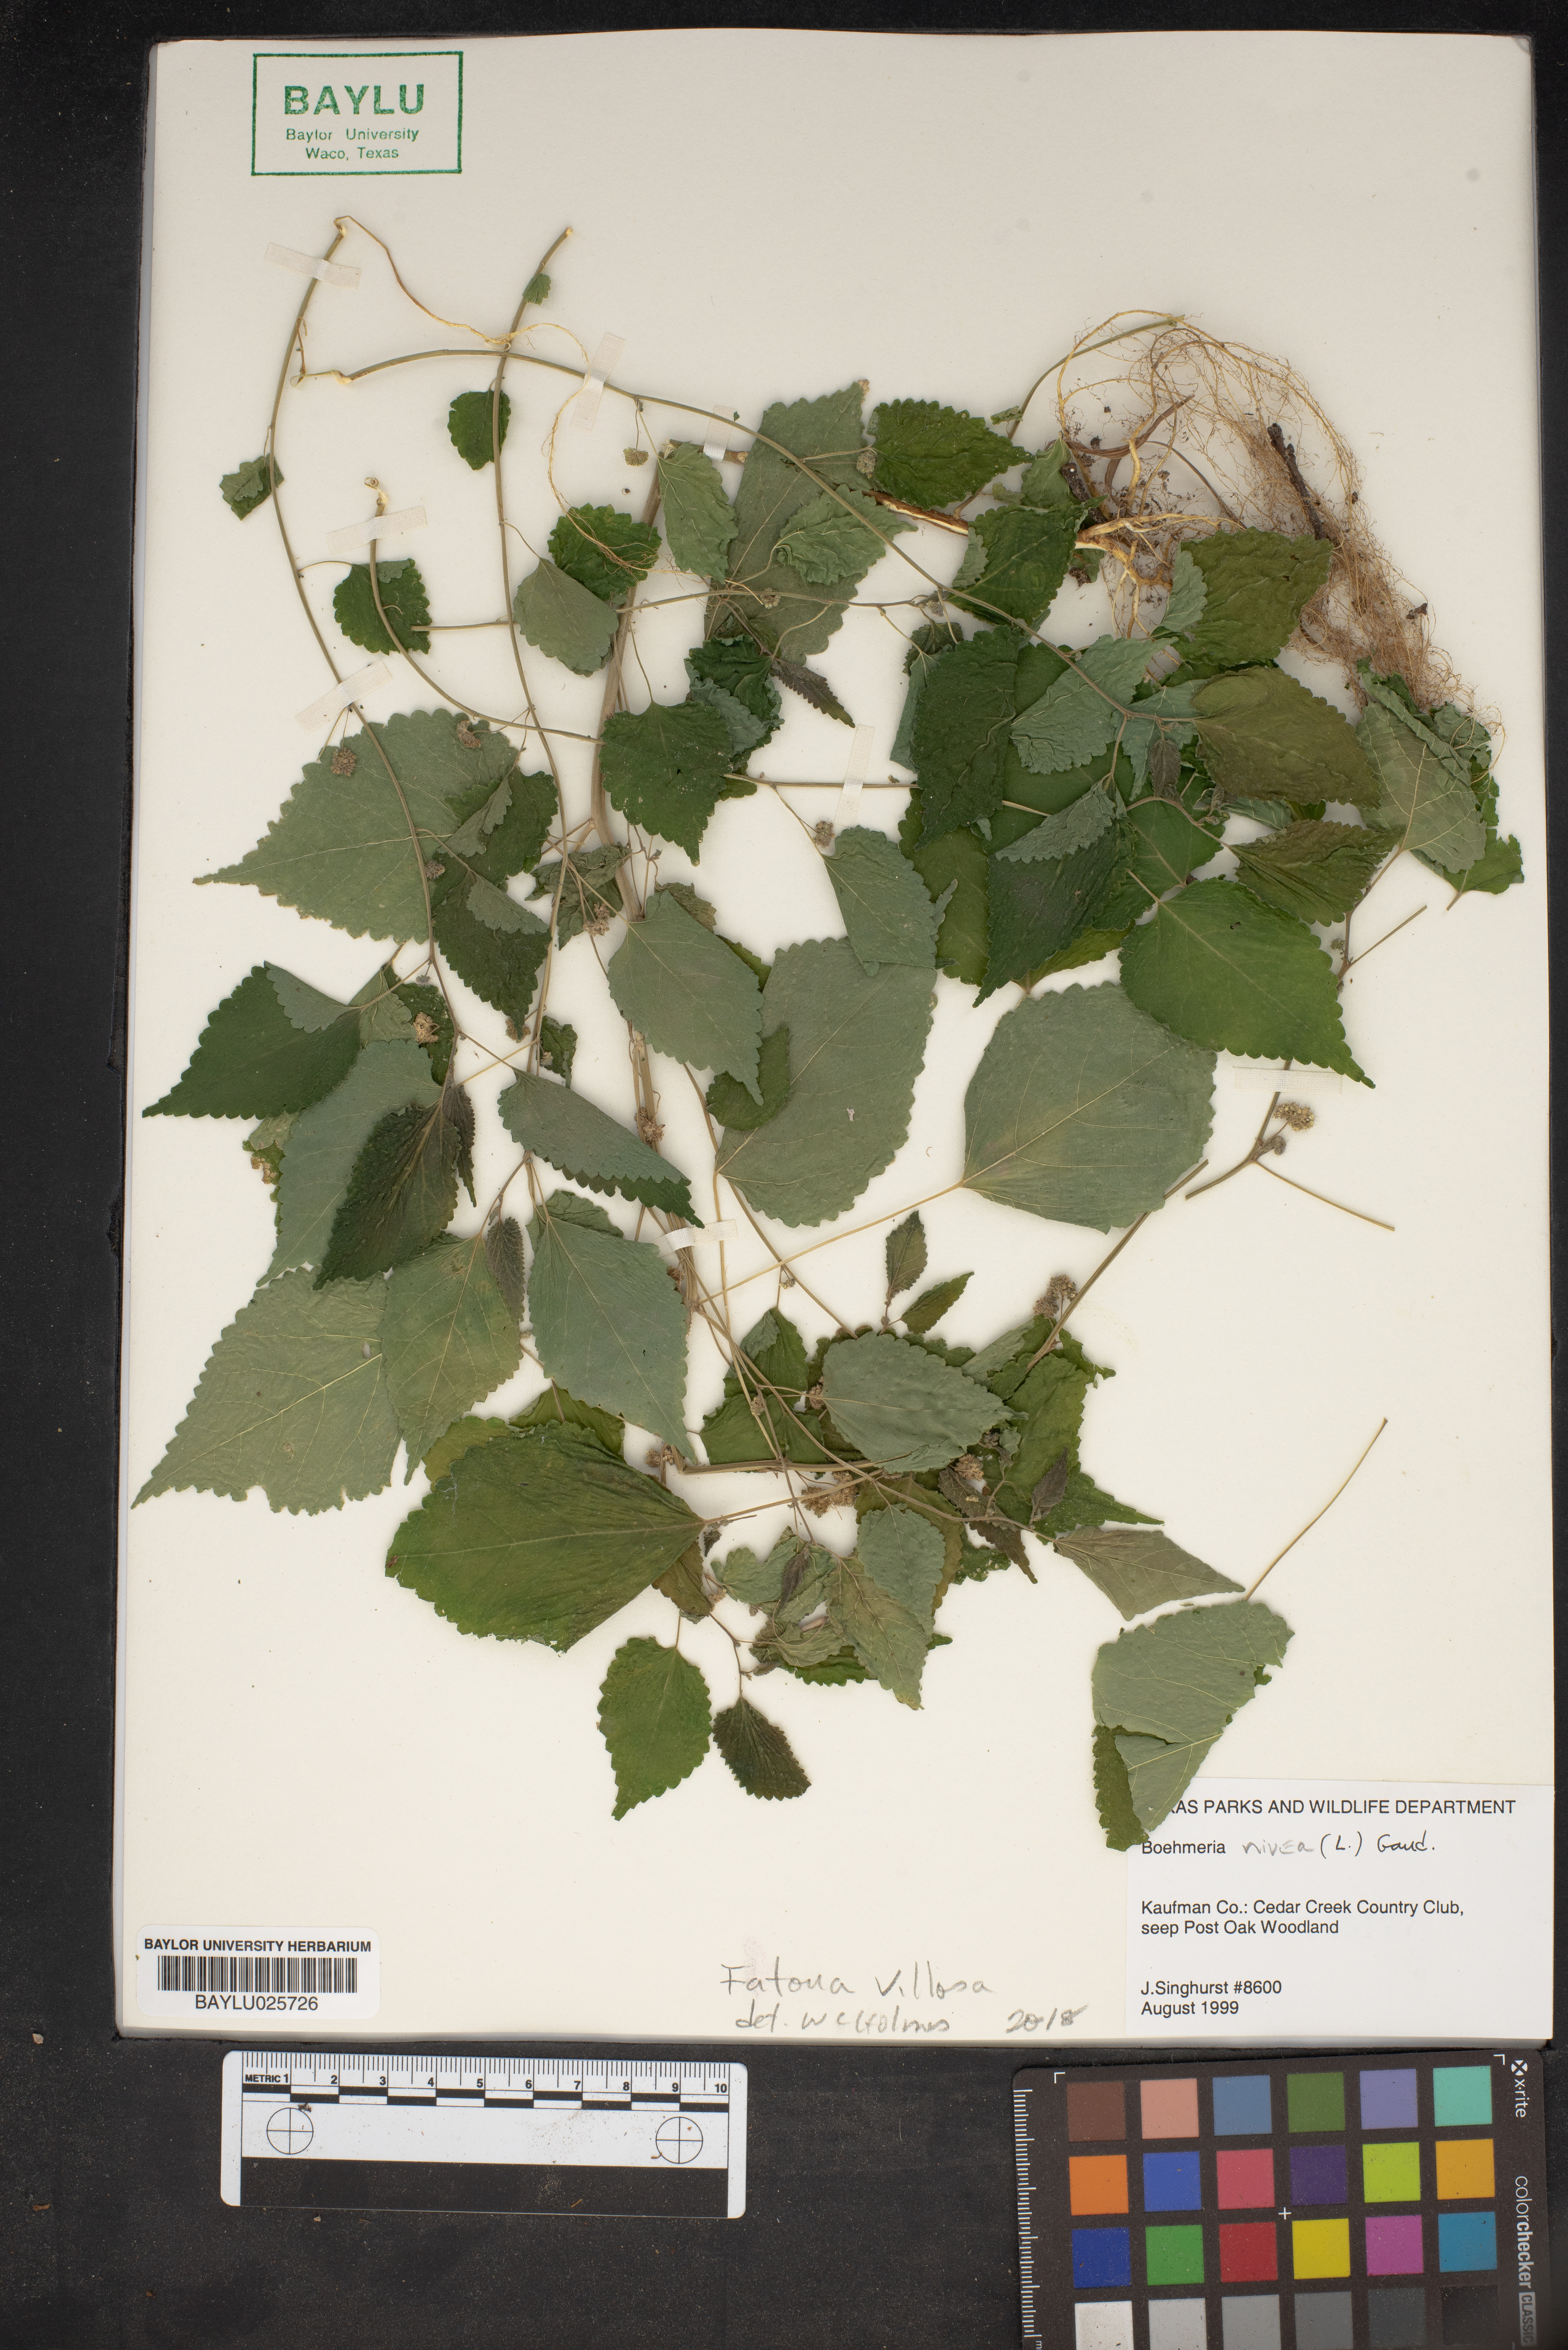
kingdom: Plantae
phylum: Tracheophyta
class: Magnoliopsida
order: Rosales
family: Moraceae
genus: Fatoua
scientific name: Fatoua villosa
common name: Hairy crabweed
